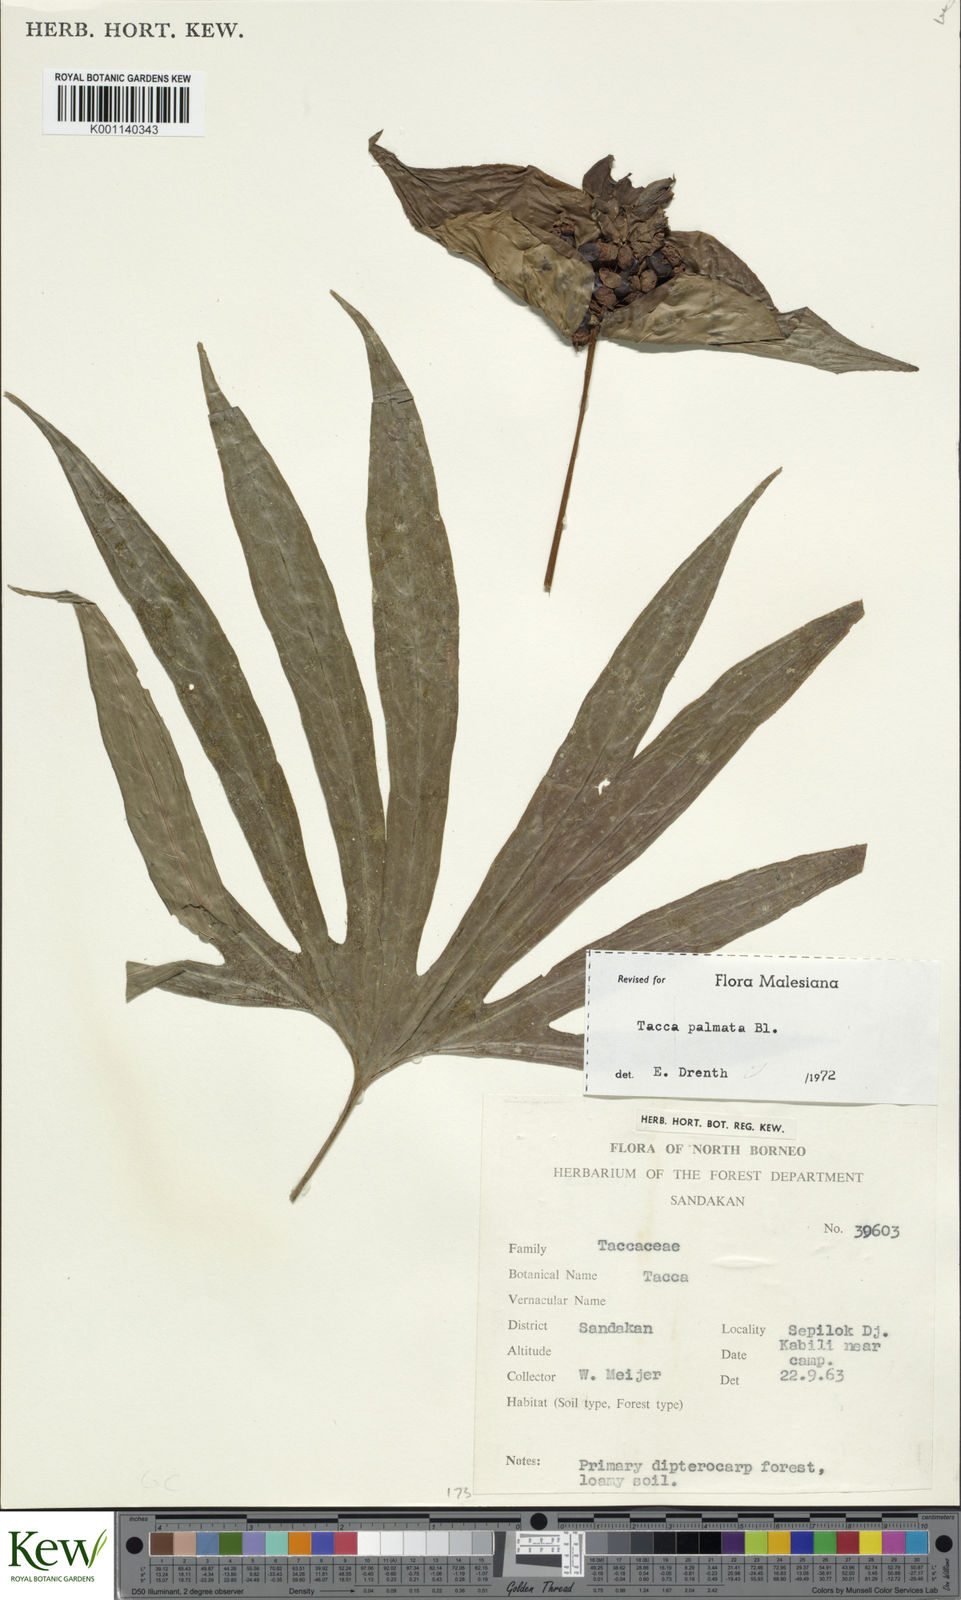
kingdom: Plantae
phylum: Tracheophyta
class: Liliopsida
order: Dioscoreales
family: Dioscoreaceae
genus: Tacca
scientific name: Tacca palmata
